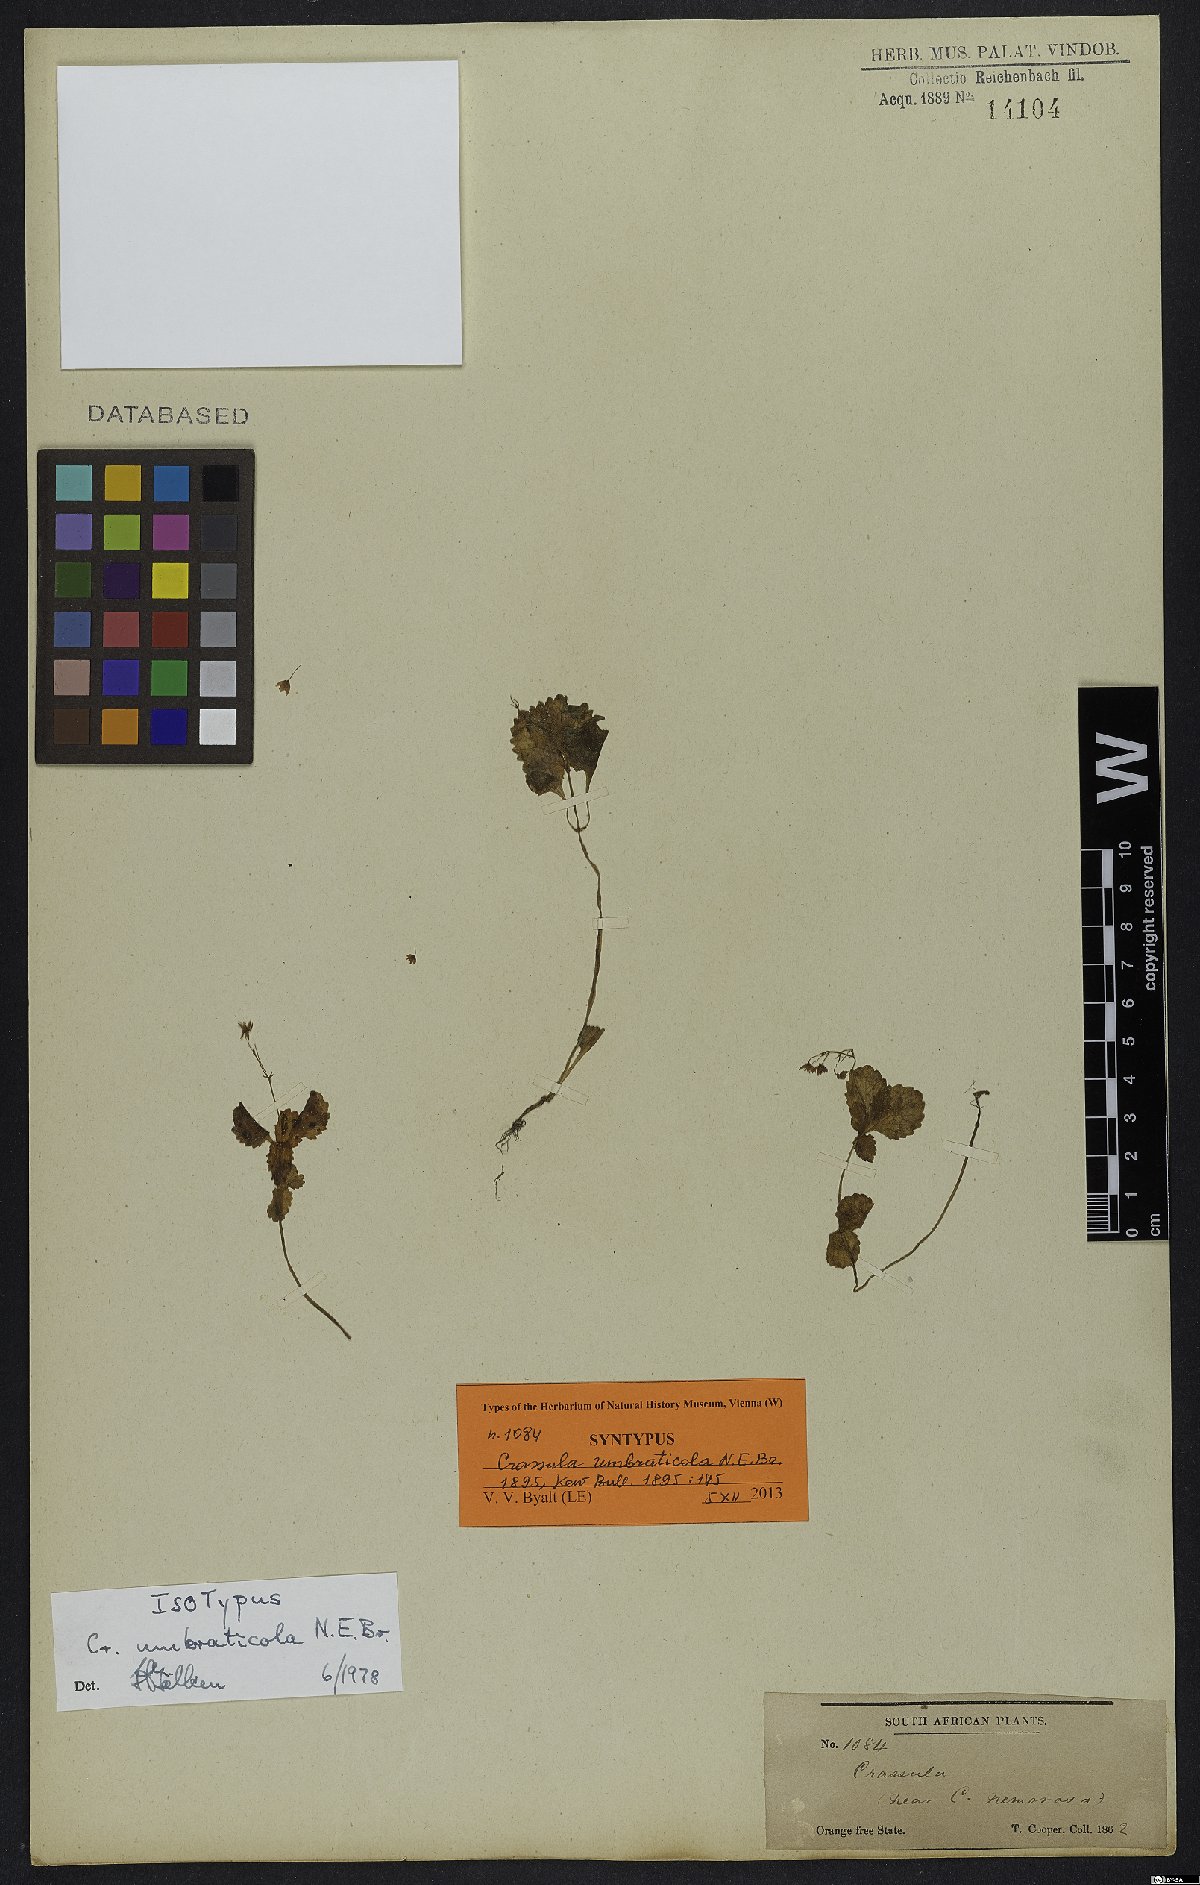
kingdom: Plantae
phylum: Tracheophyta
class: Magnoliopsida
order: Saxifragales
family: Crassulaceae
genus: Crassula
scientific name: Crassula umbraticola
